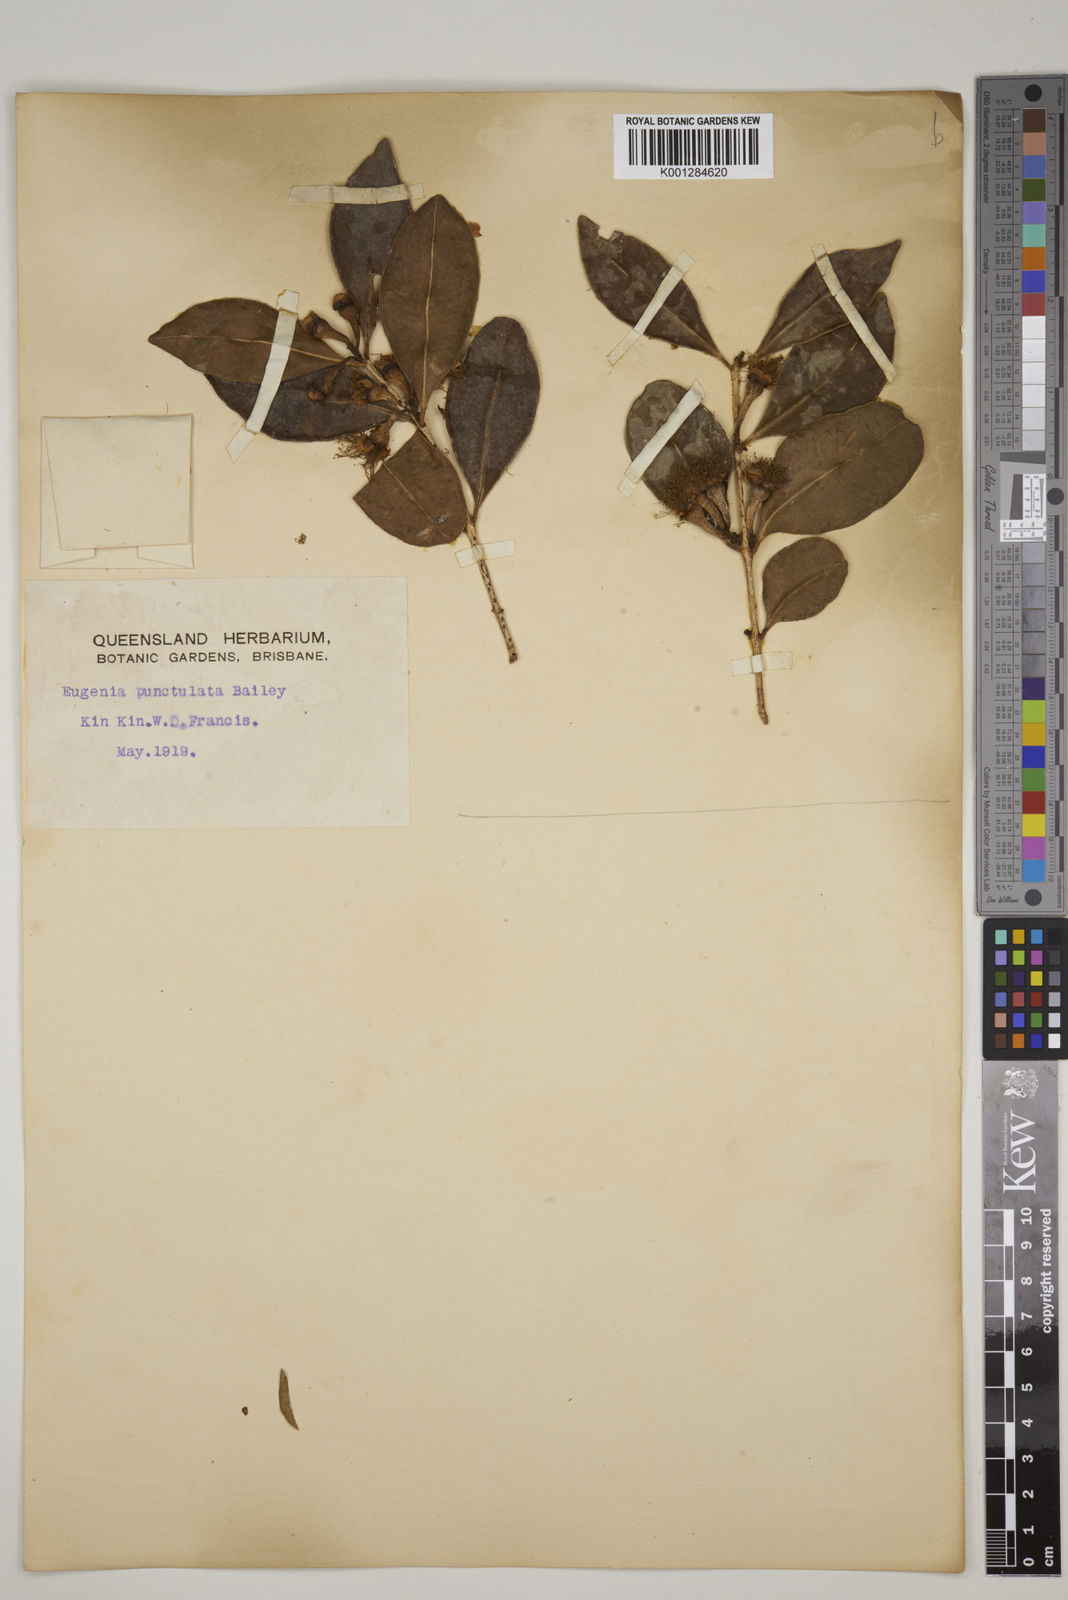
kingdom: Plantae
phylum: Tracheophyta
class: Magnoliopsida
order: Myrtales
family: Myrtaceae
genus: Syzygium
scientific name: Syzygium corynanthum
